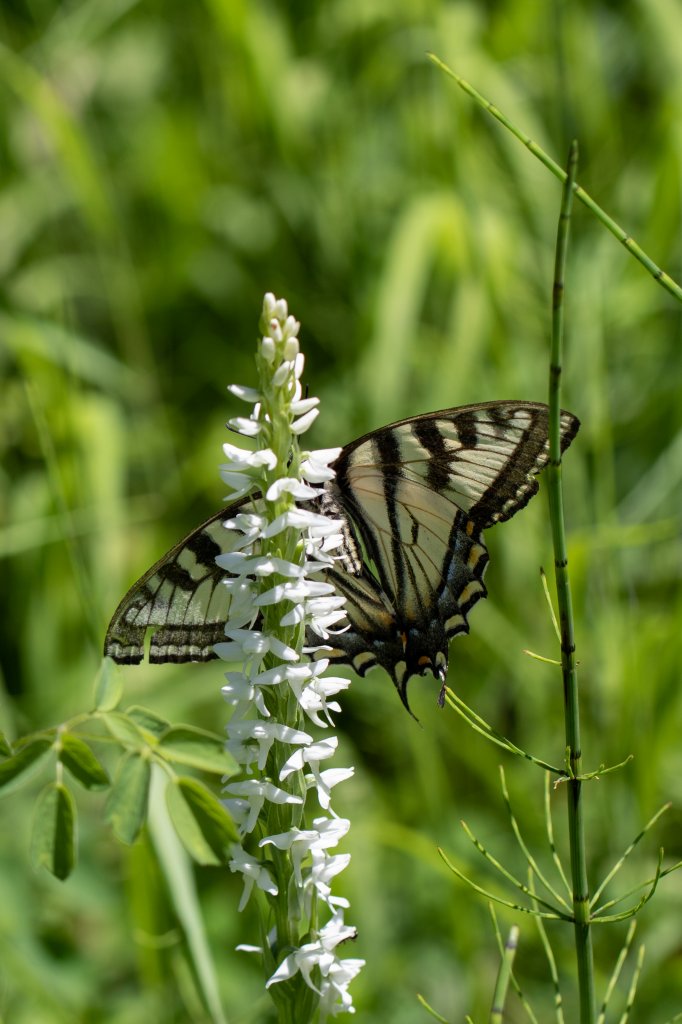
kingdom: Animalia
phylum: Arthropoda
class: Insecta
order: Lepidoptera
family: Papilionidae
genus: Pterourus
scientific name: Pterourus canadensis
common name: Canadian Tiger Swallowtail
